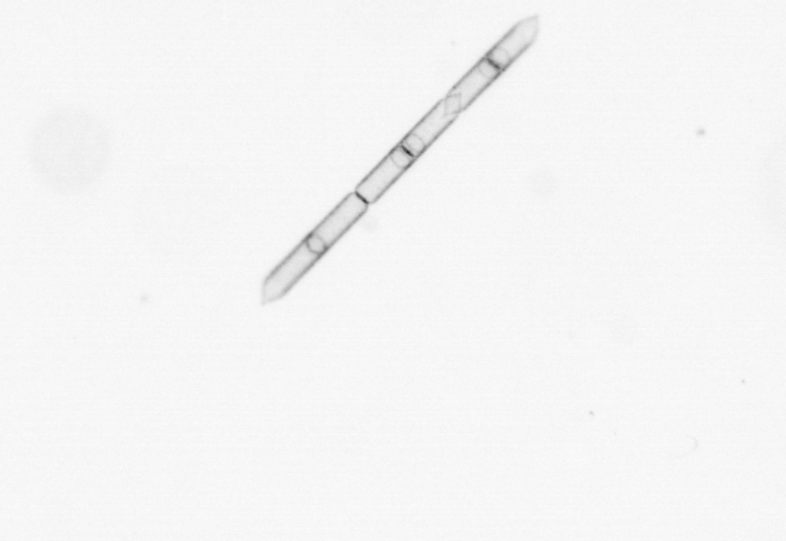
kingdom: Chromista
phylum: Ochrophyta
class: Bacillariophyceae
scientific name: Bacillariophyceae
